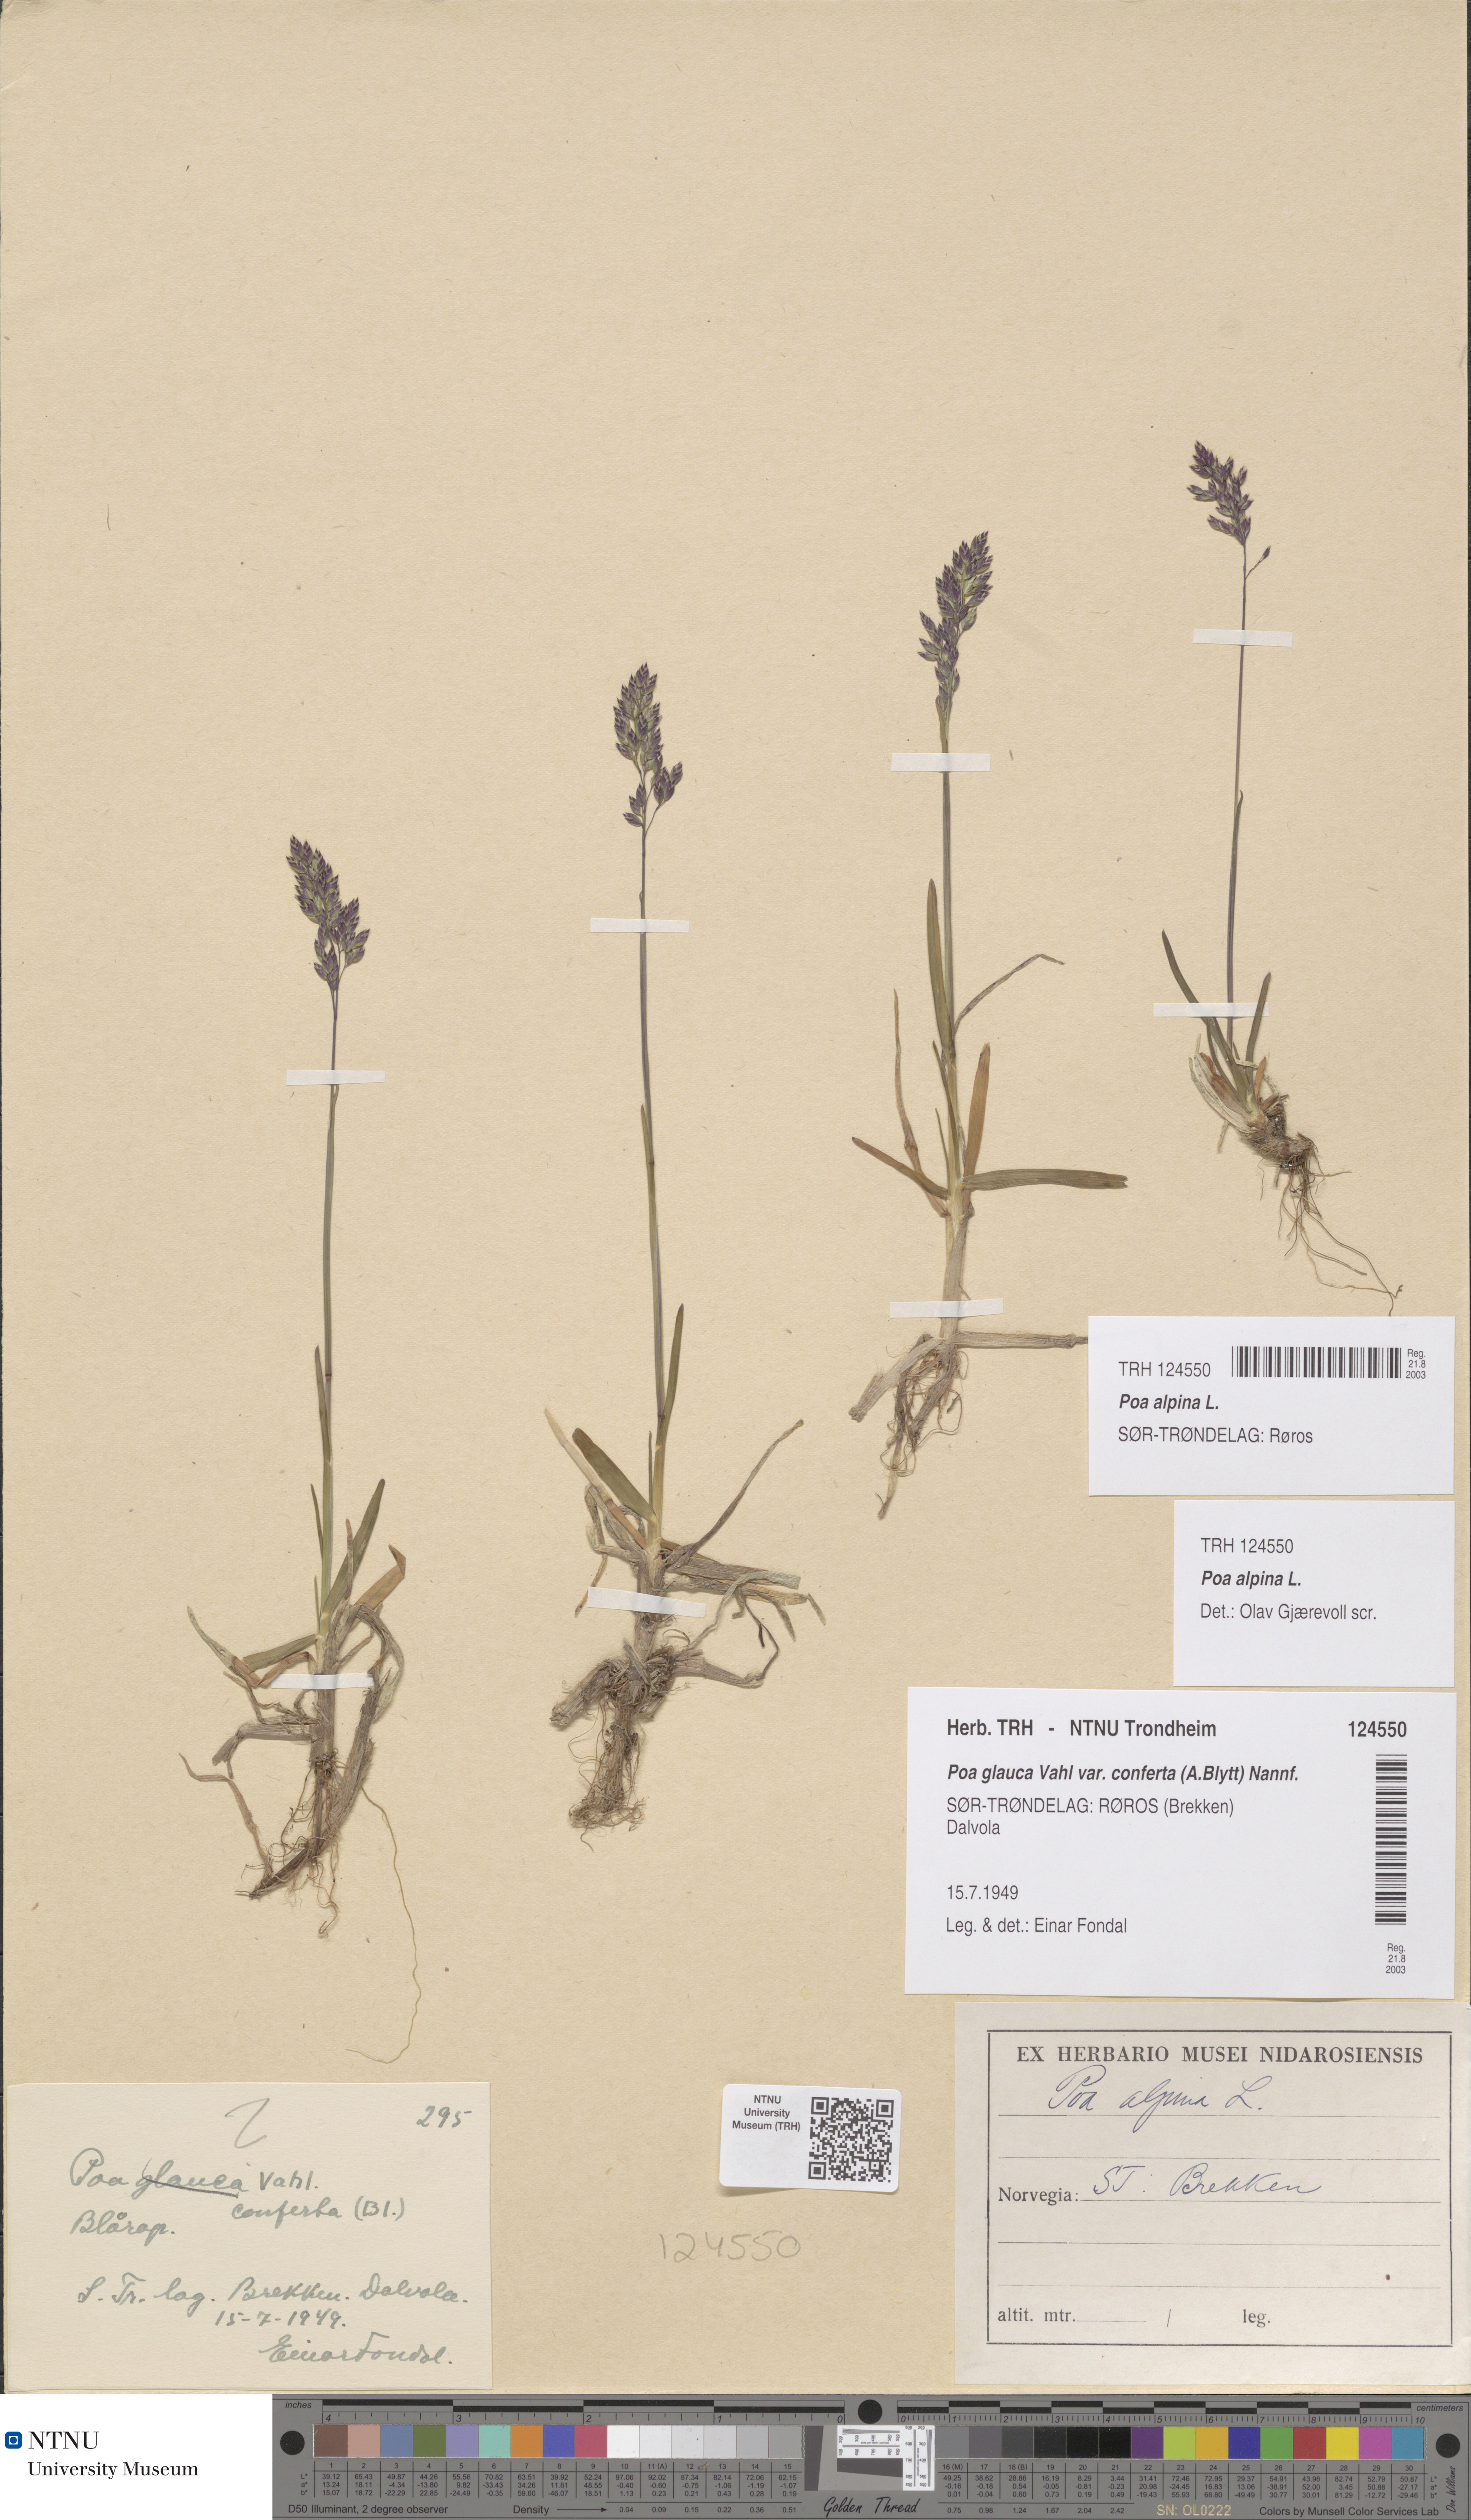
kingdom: Plantae
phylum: Tracheophyta
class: Liliopsida
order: Poales
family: Poaceae
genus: Poa
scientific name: Poa alpina
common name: Alpine bluegrass
